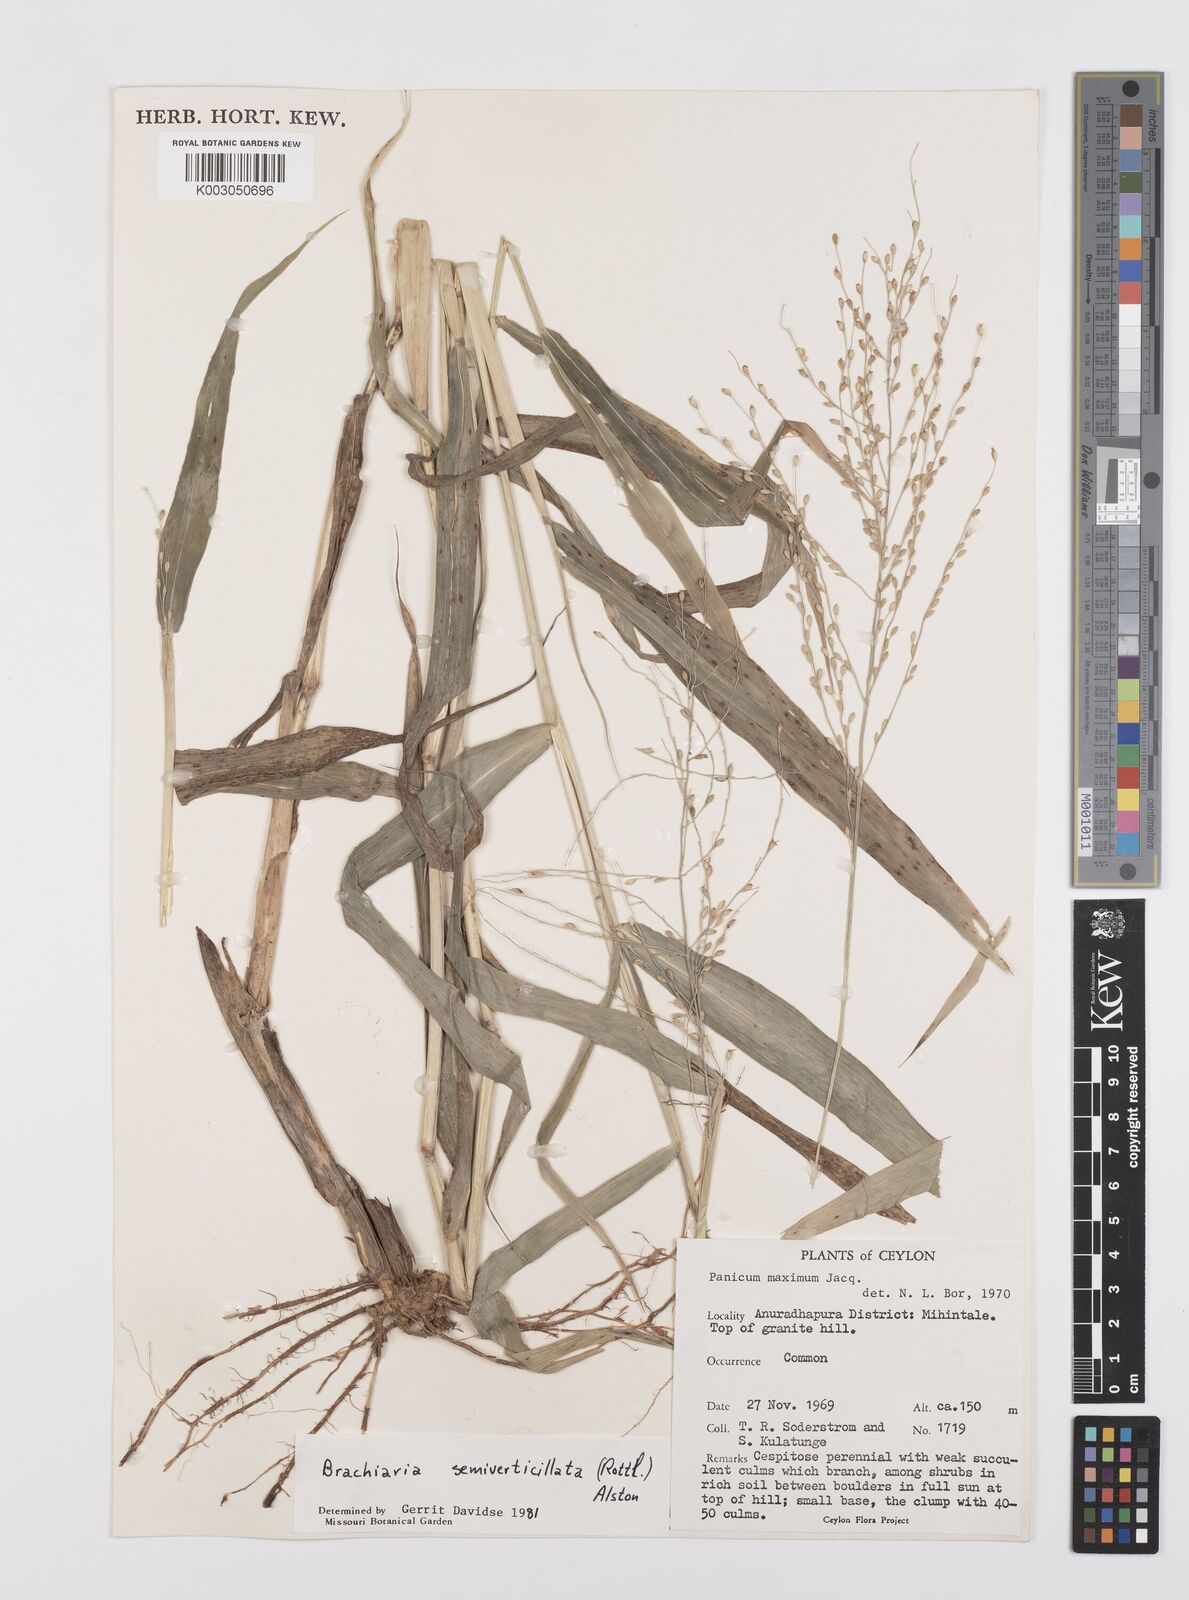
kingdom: Plantae
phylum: Tracheophyta
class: Liliopsida
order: Poales
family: Poaceae
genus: Urochloa
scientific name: Urochloa semiundulata
